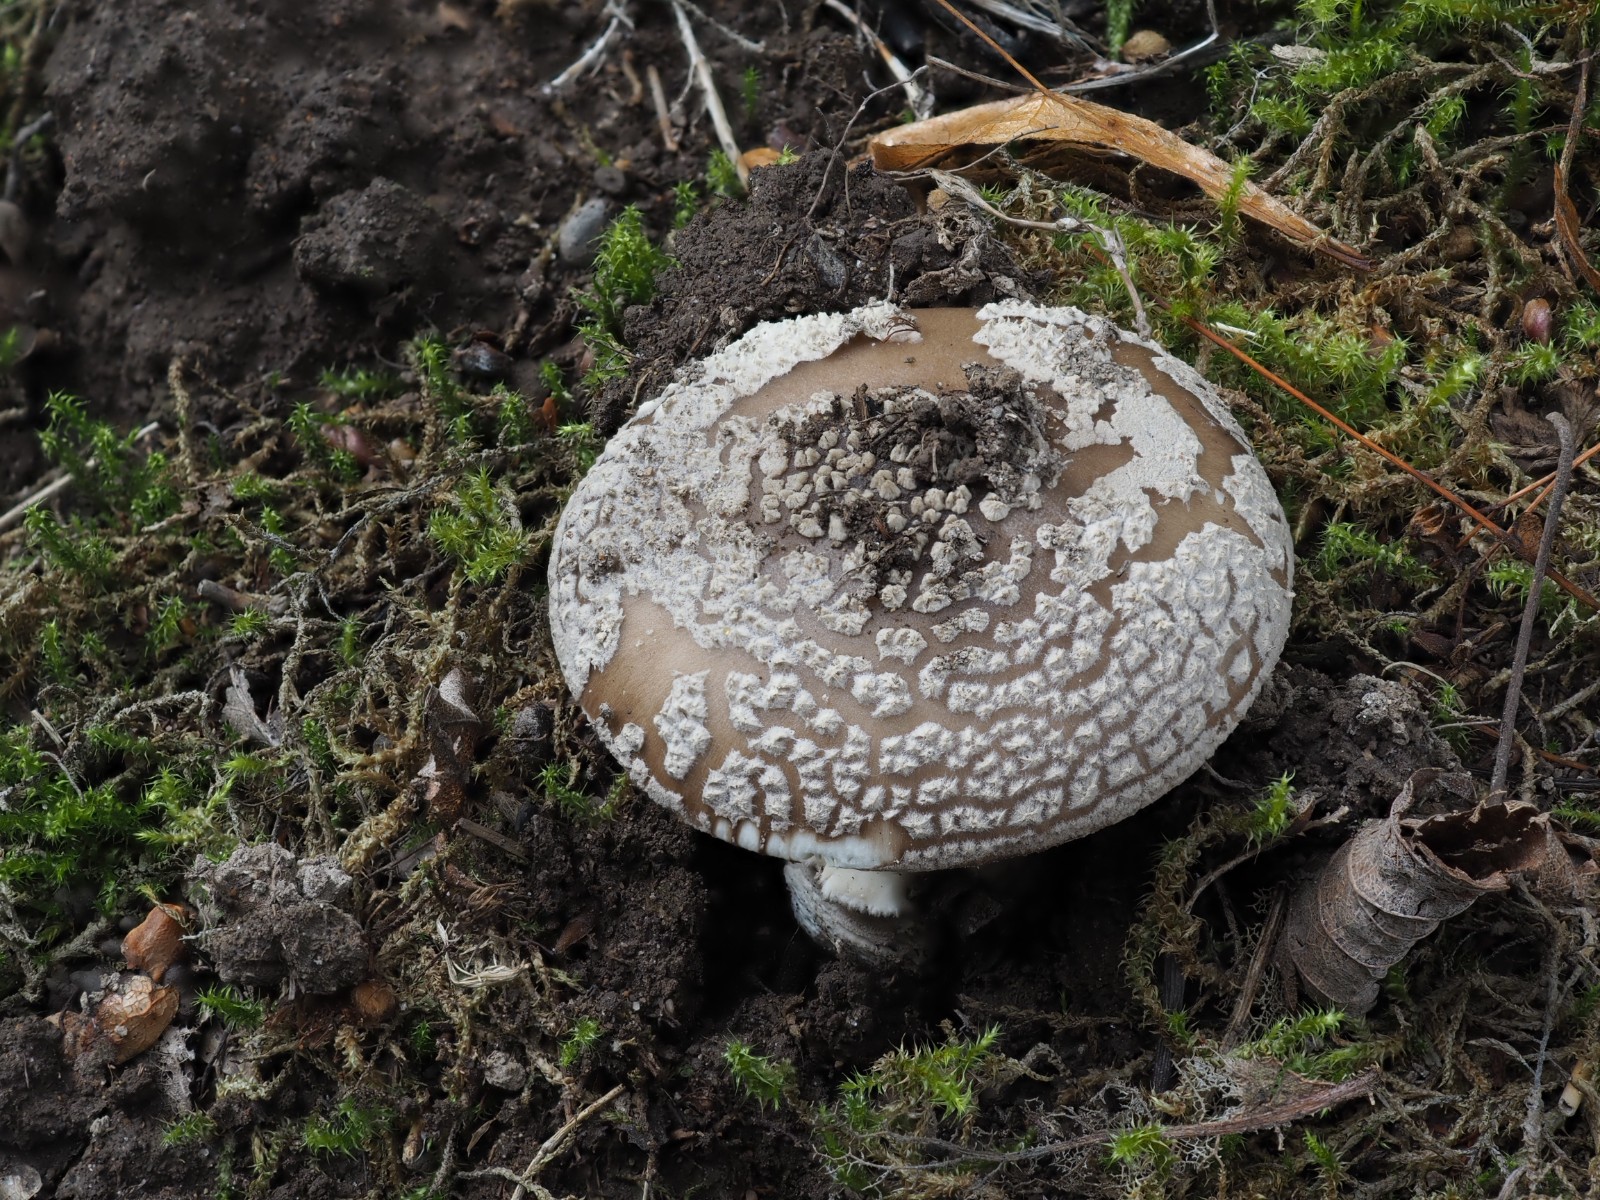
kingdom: Fungi
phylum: Basidiomycota
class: Agaricomycetes
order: Agaricales
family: Amanitaceae
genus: Amanita
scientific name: Amanita
